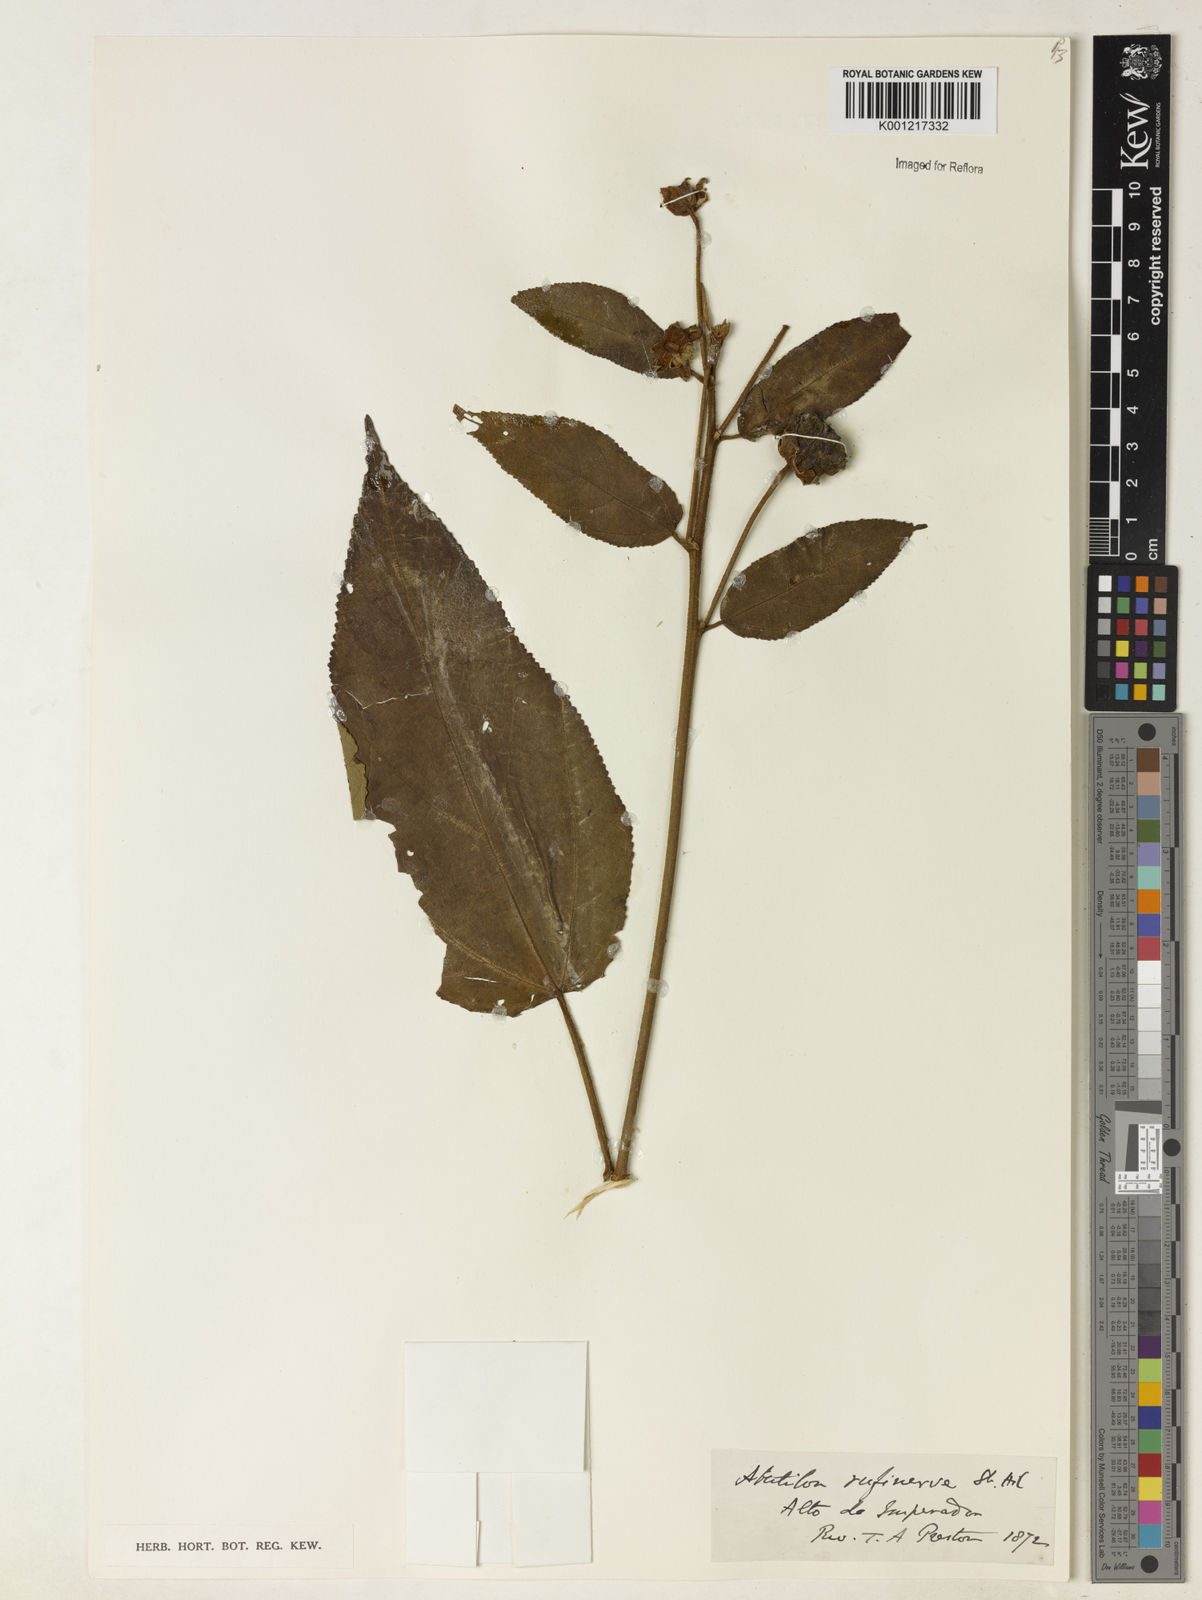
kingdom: Plantae
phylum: Tracheophyta
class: Magnoliopsida
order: Malvales
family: Malvaceae
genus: Callianthe
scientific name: Callianthe rufinerva
